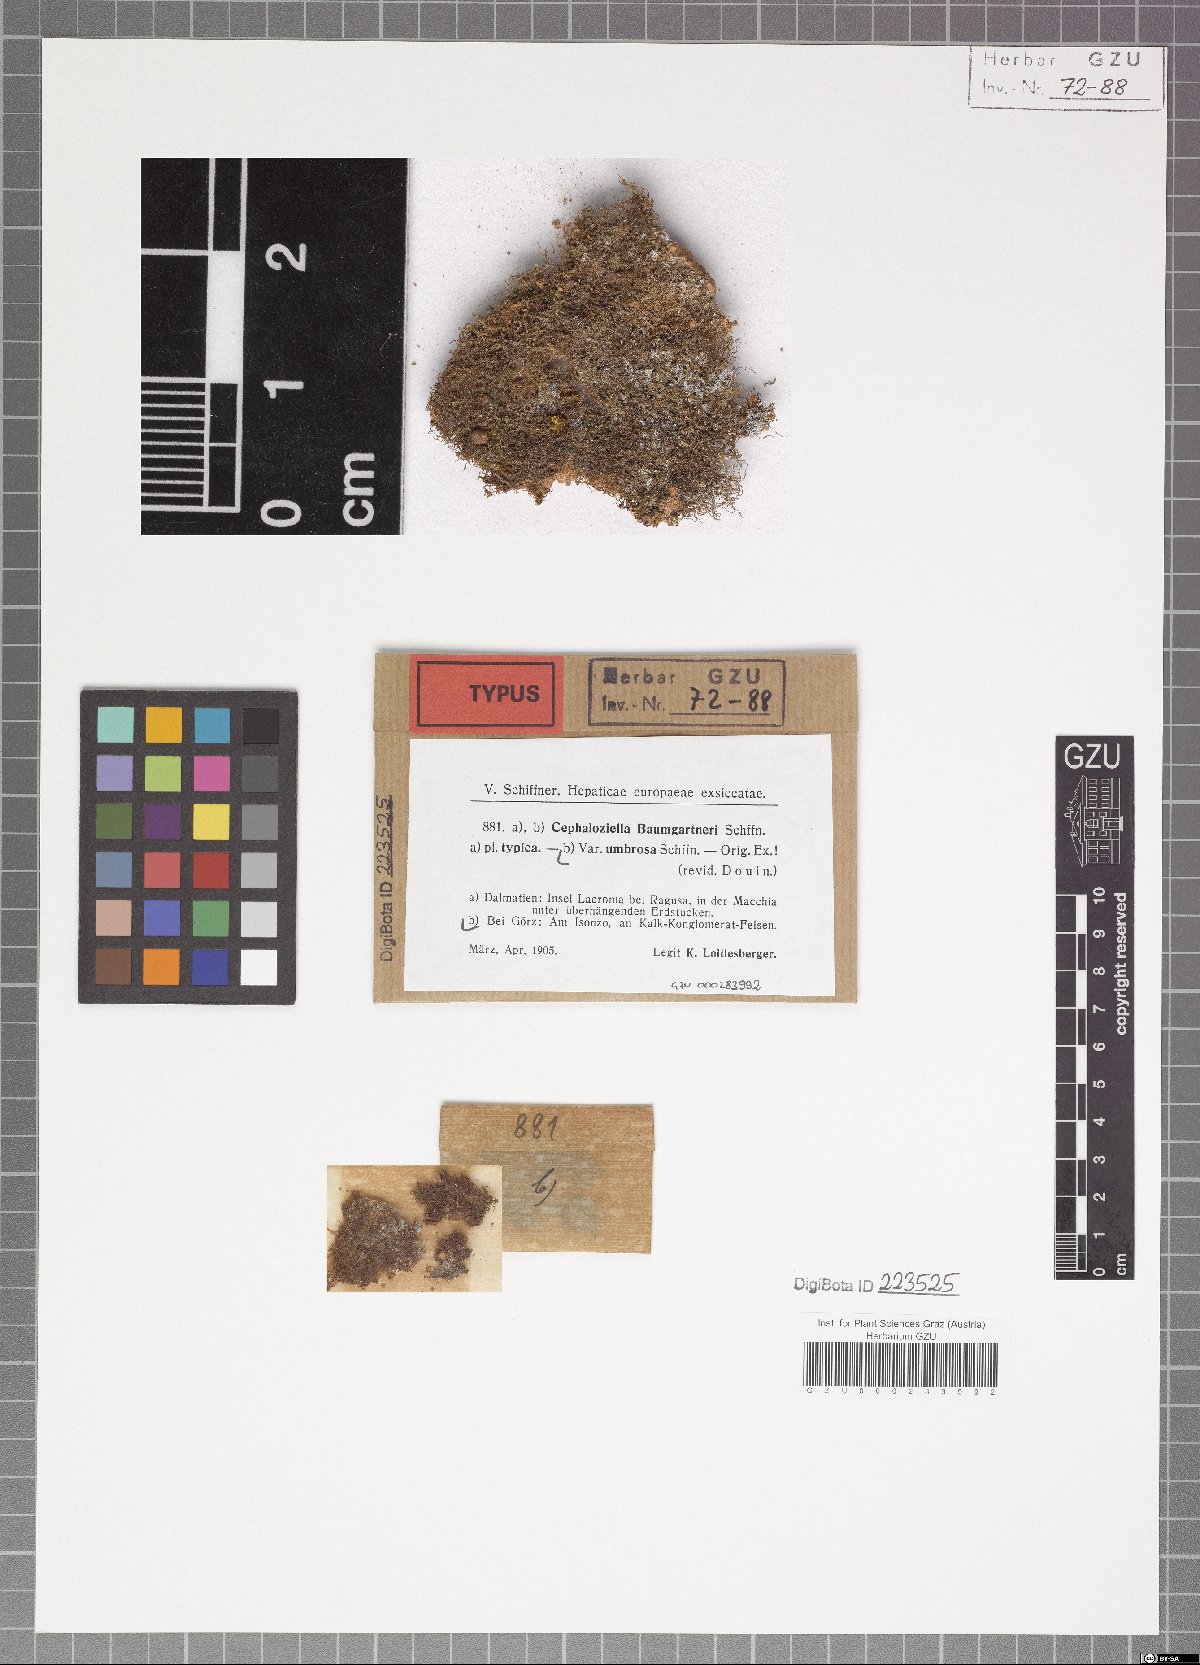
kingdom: Plantae
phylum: Marchantiophyta
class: Jungermanniopsida
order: Jungermanniales
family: Cephaloziellaceae
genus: Cephaloziella
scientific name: Cephaloziella baumgartneri
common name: Chalk threadwort
